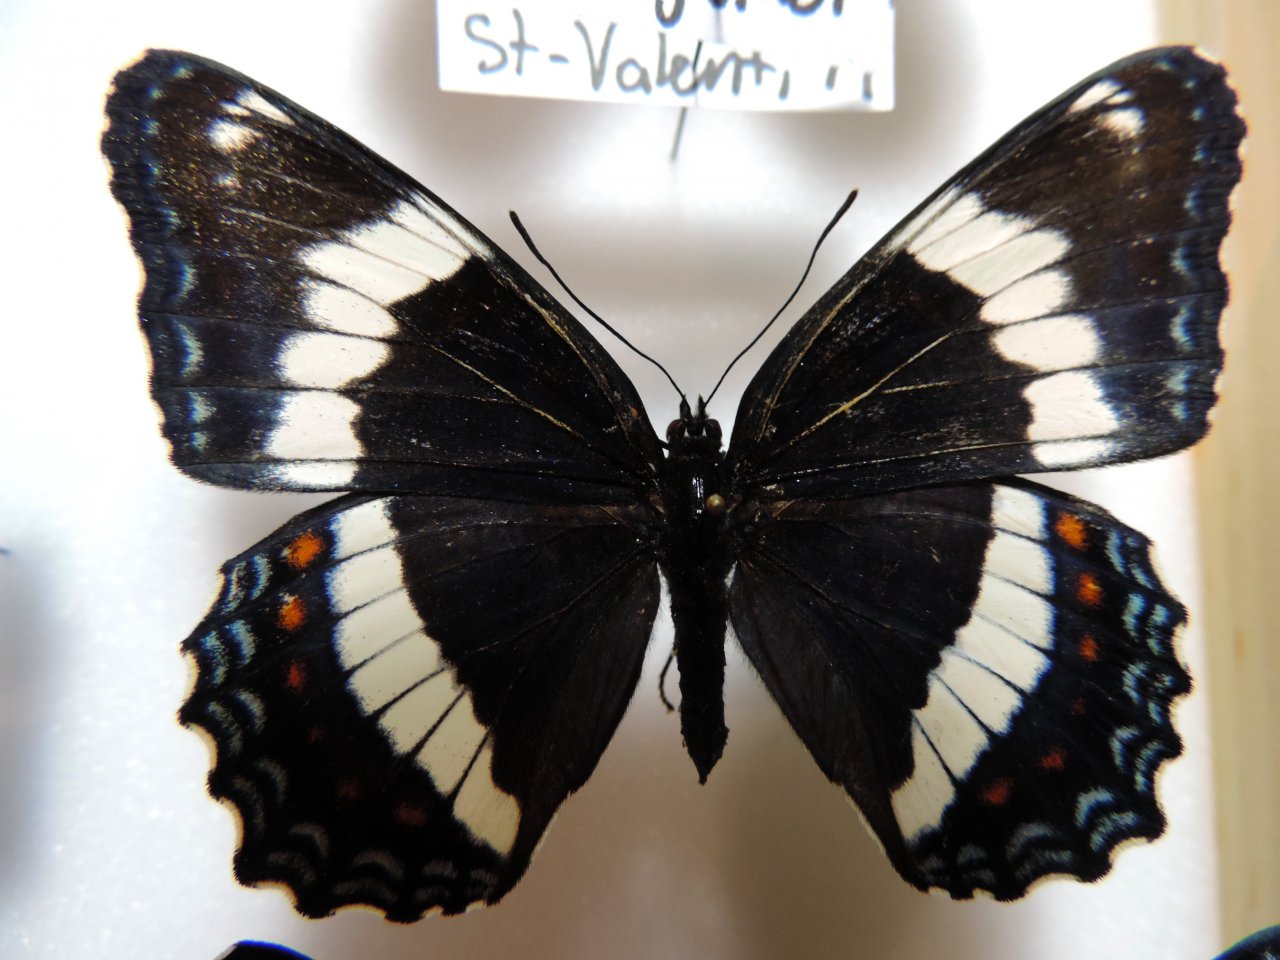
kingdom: Animalia
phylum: Arthropoda
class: Insecta
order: Lepidoptera
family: Nymphalidae
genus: Limenitis
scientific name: Limenitis arthemis
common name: Red-spotted Admiral
